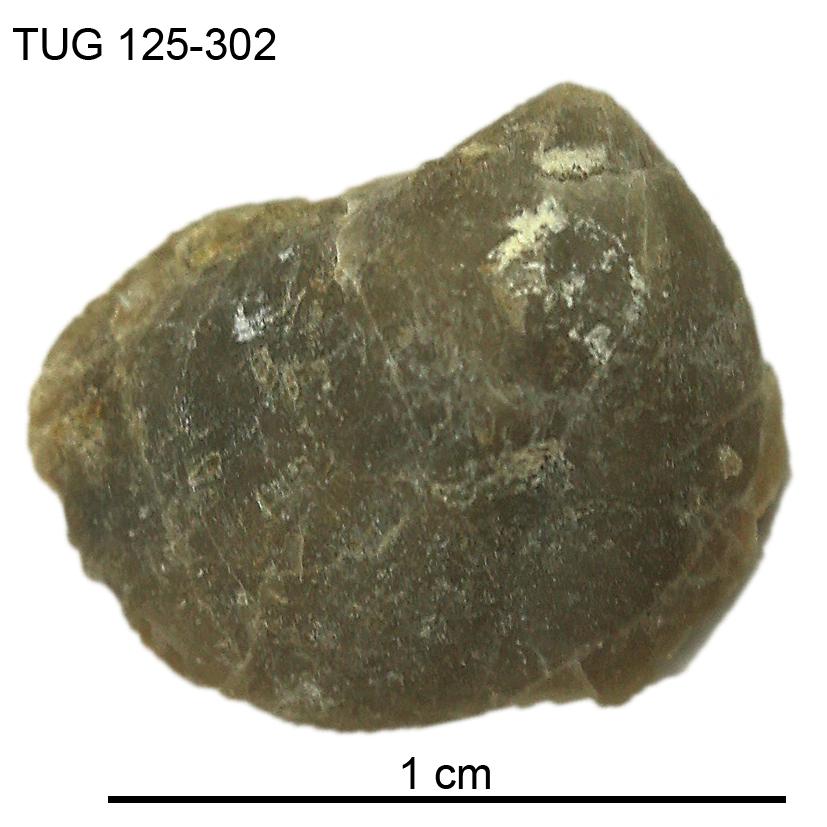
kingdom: Animalia
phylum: Mollusca
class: Bivalvia
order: Nuculida
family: Nuculidae
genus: Nuculoidea
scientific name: Nuculoidea
